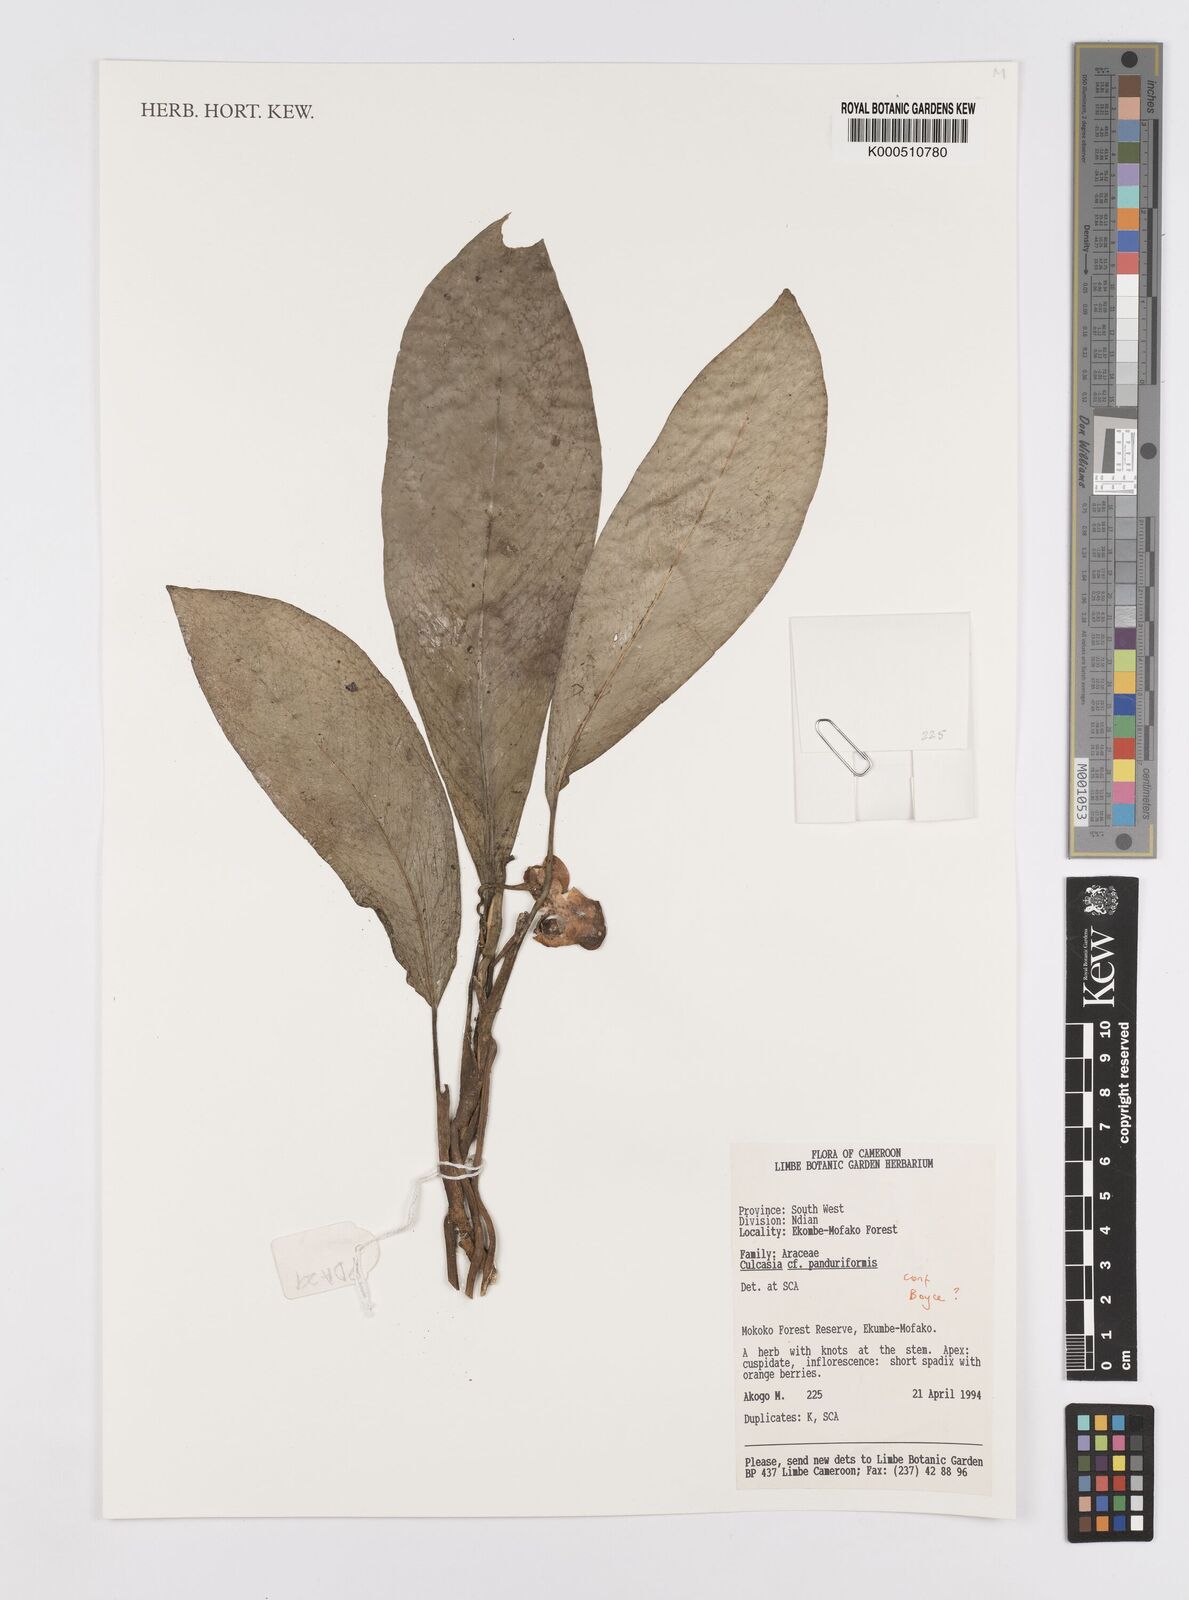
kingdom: Plantae
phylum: Tracheophyta
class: Liliopsida
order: Alismatales
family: Araceae
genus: Culcasia
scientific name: Culcasia panduriformis
